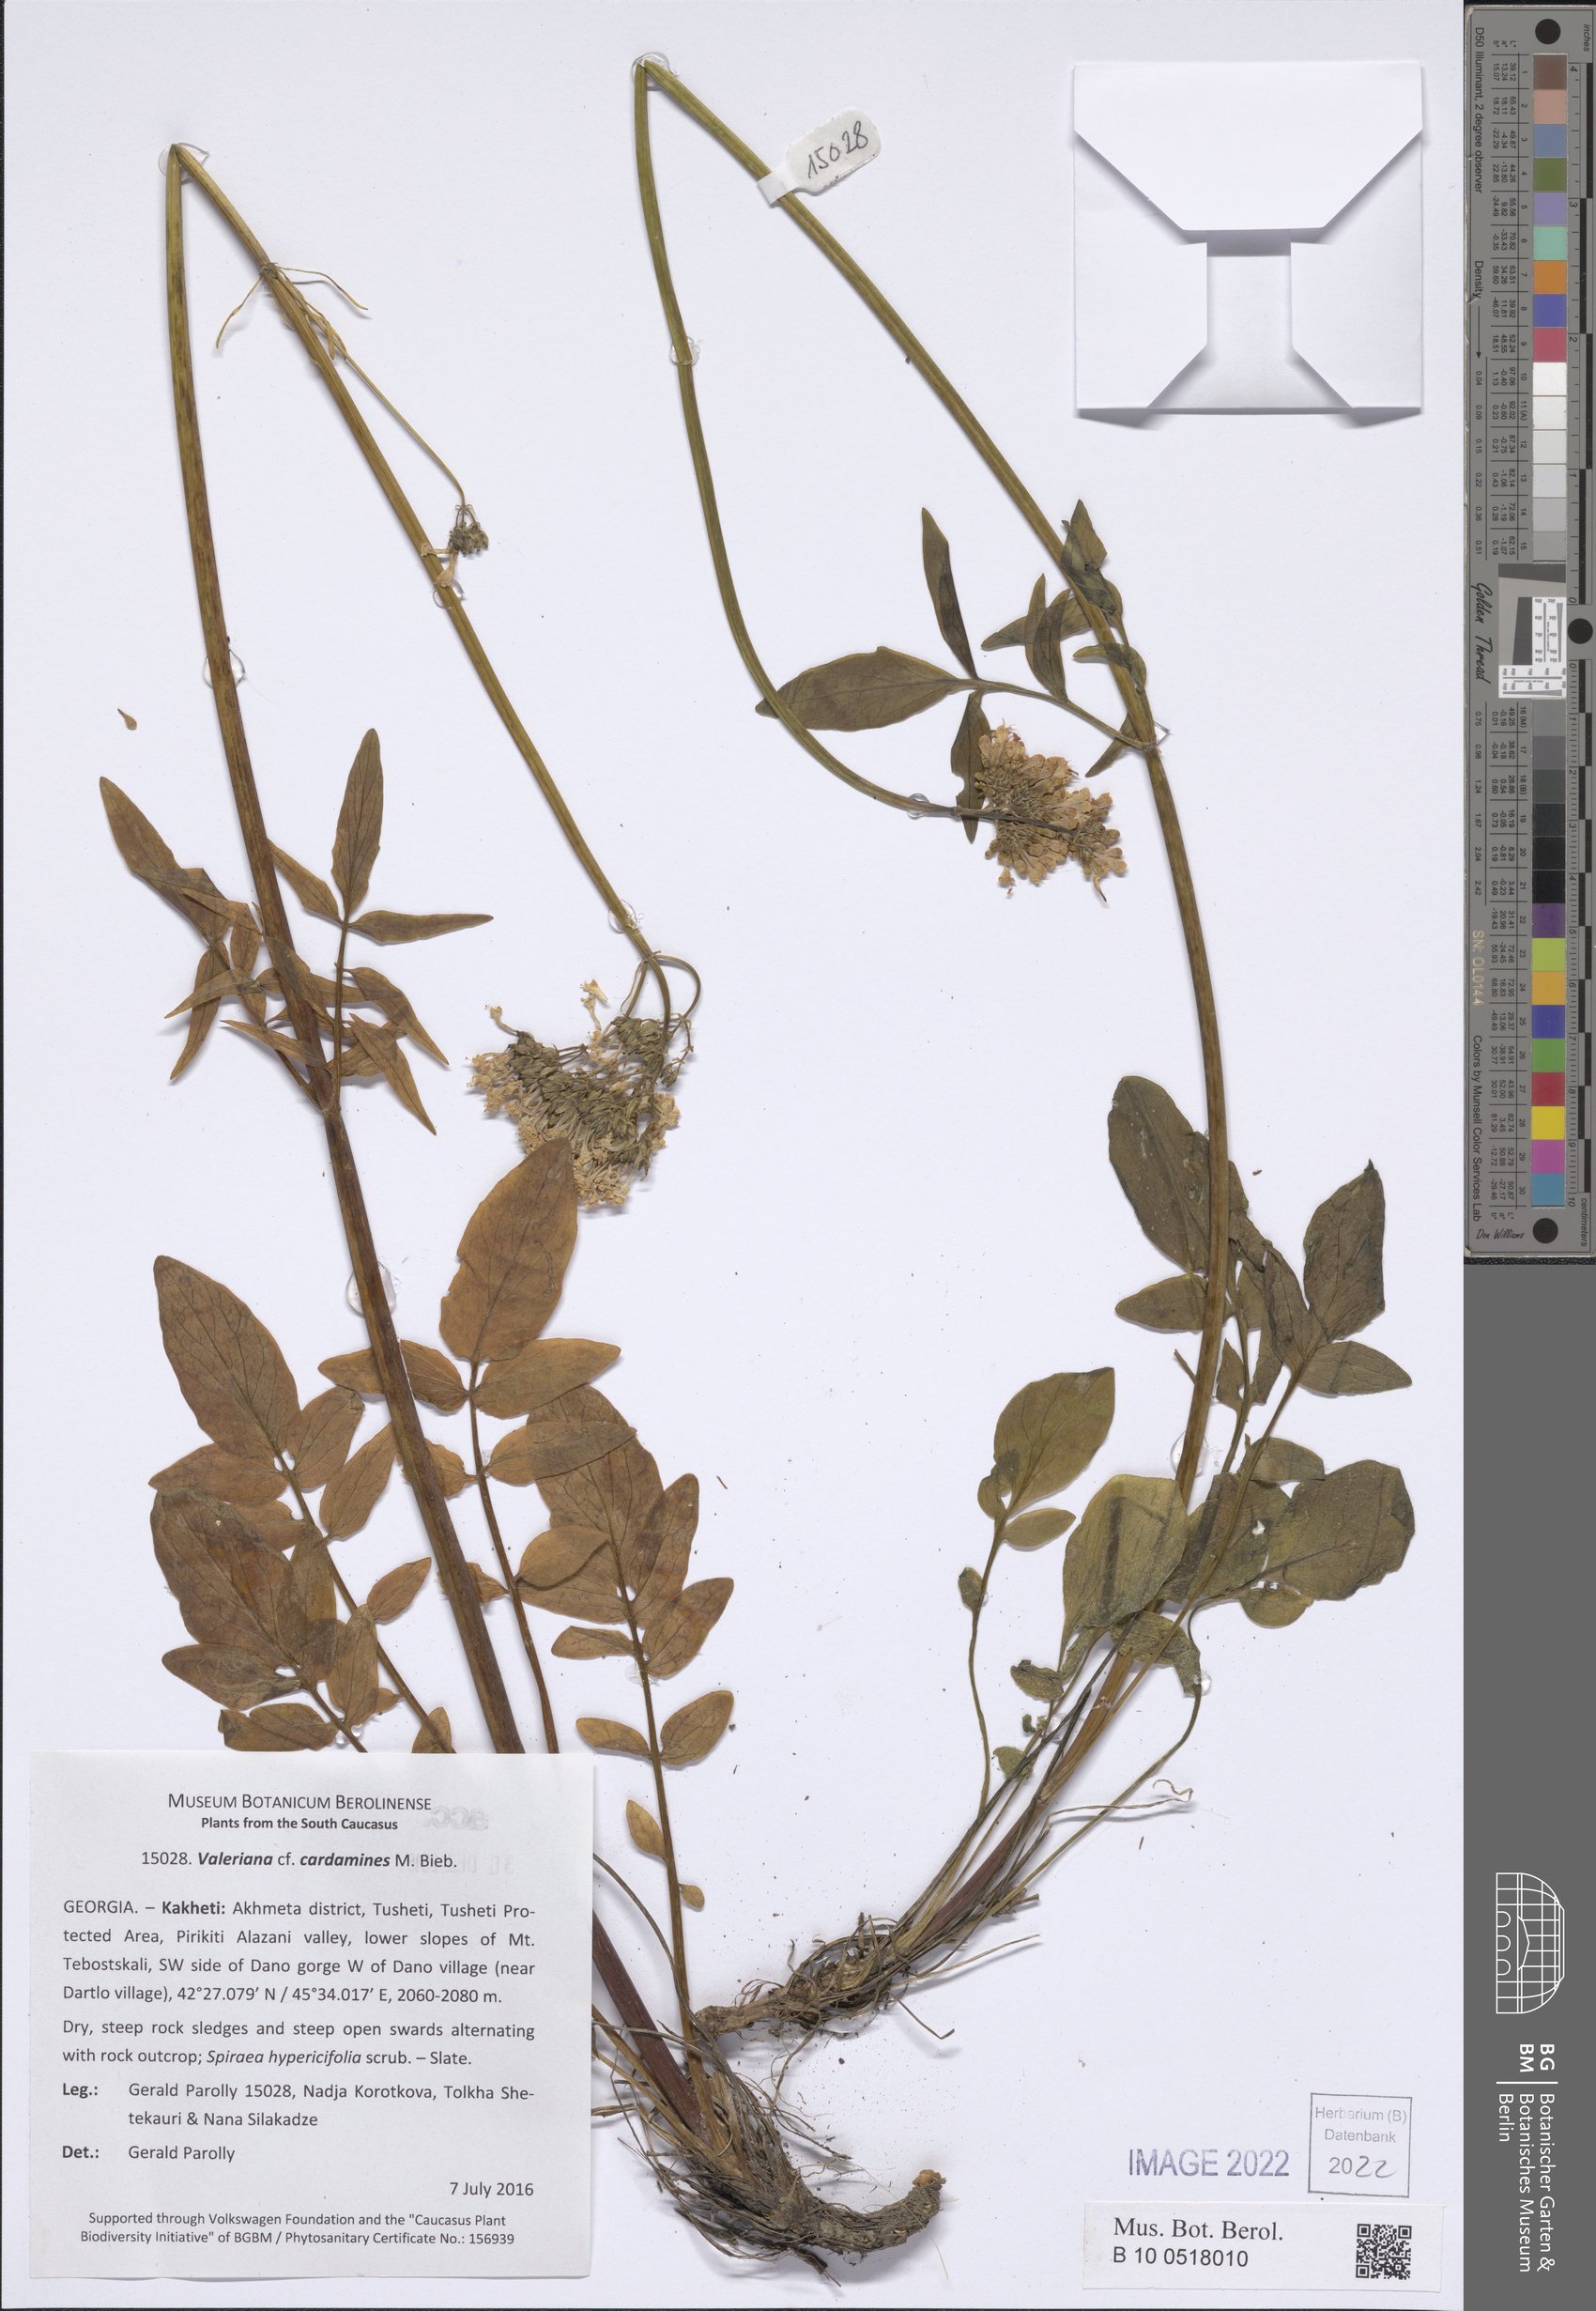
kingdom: Plantae
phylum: Tracheophyta
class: Magnoliopsida
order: Dipsacales
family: Caprifoliaceae
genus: Valeriana
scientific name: Valeriana cardamines
